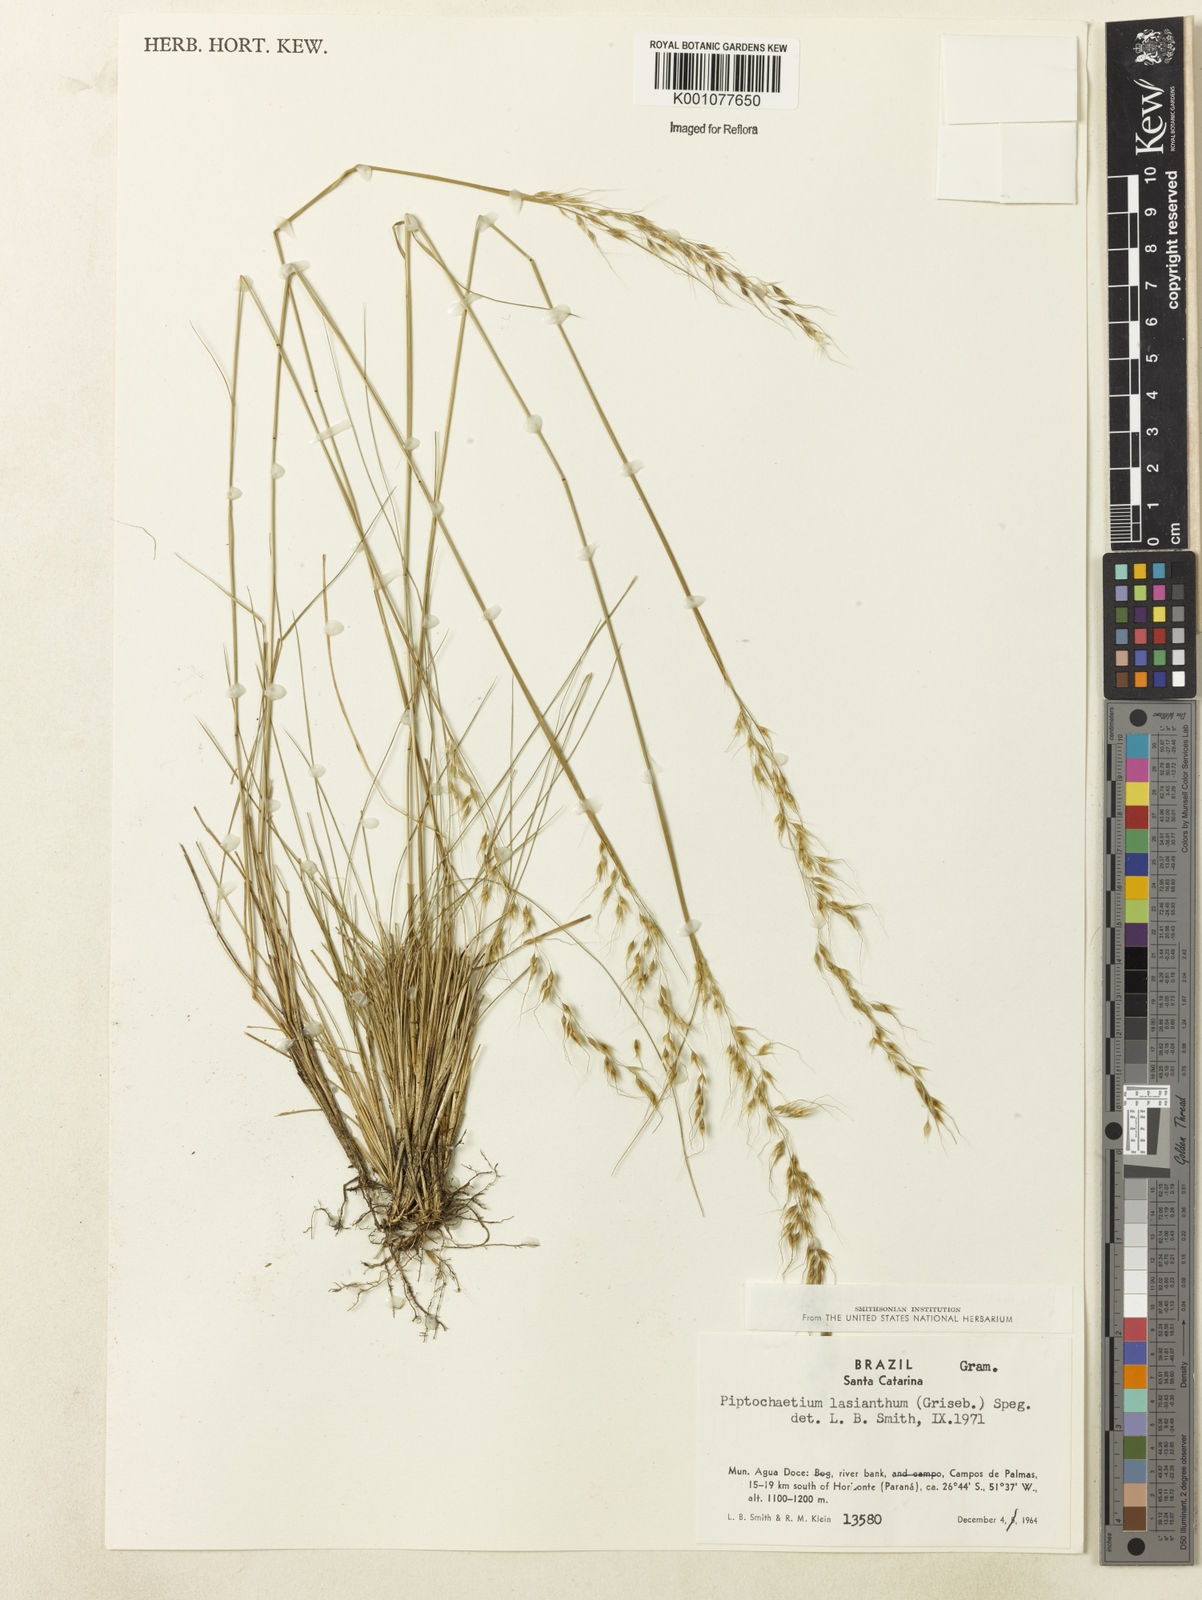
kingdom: Plantae
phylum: Tracheophyta
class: Liliopsida
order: Poales
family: Poaceae
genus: Piptochaetium
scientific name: Piptochaetium lasianthum
